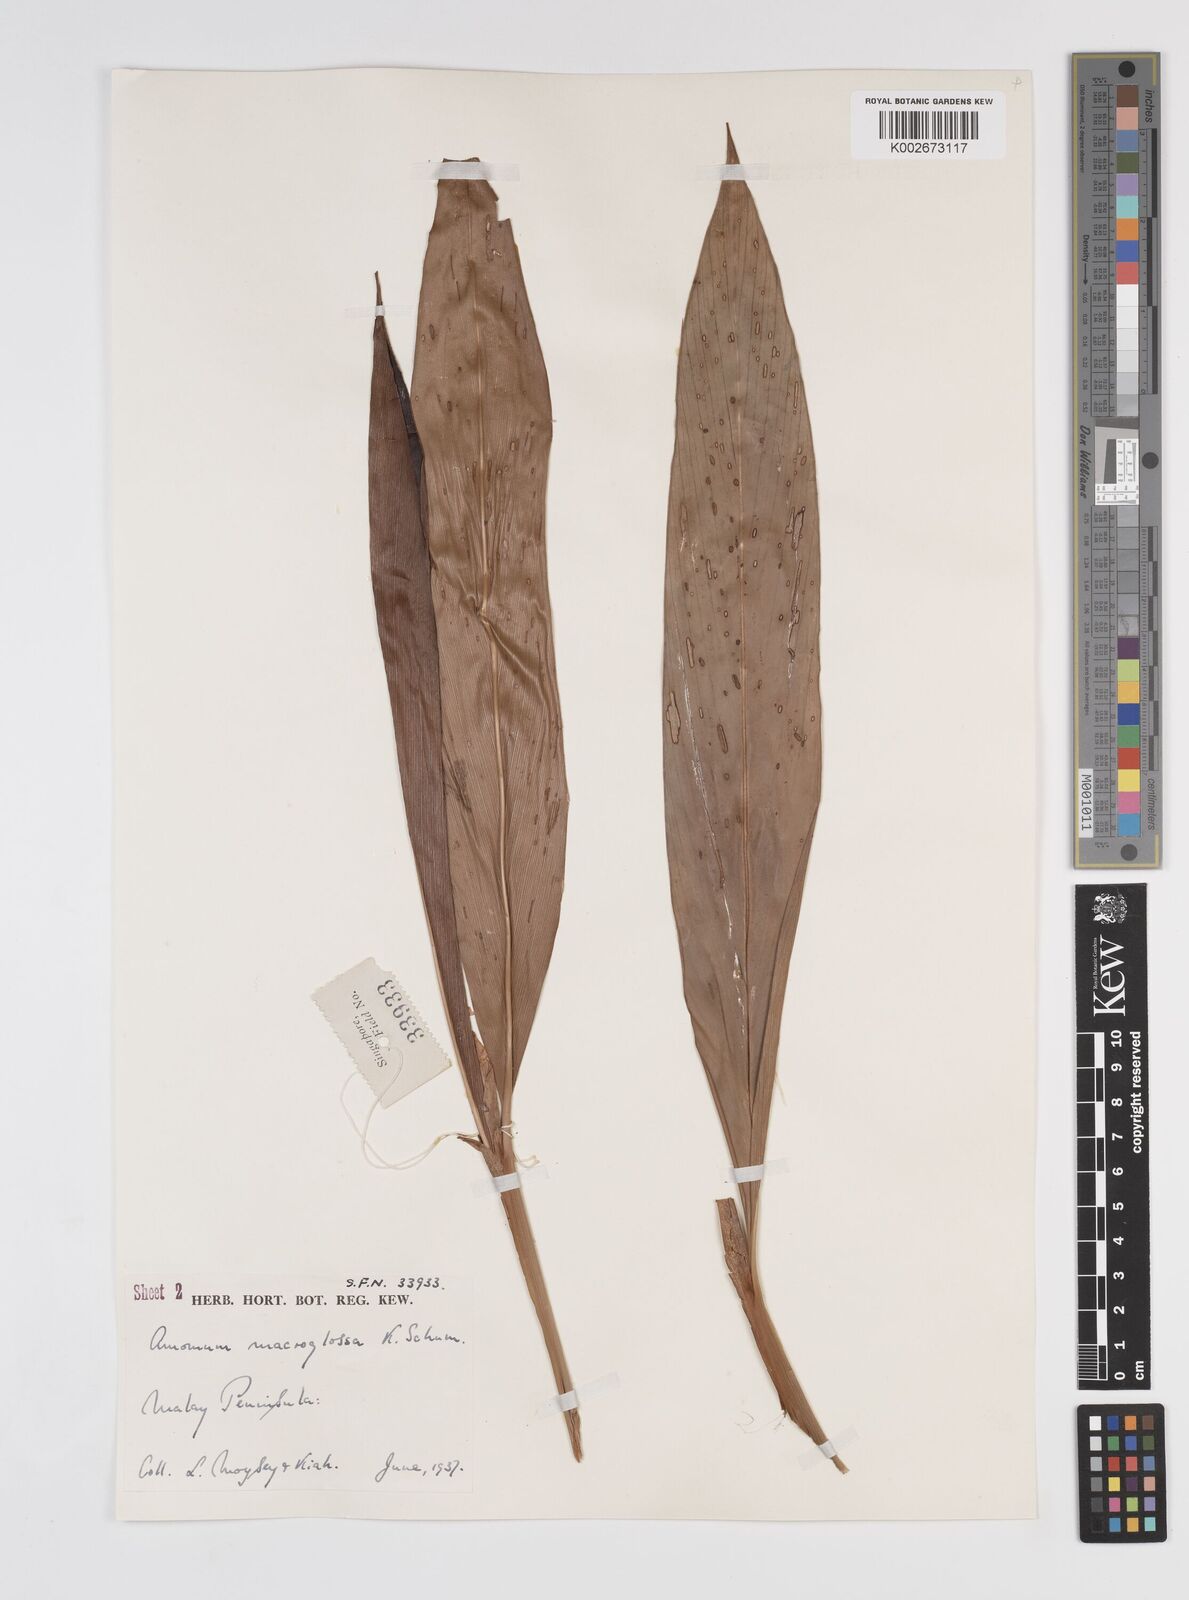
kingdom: Plantae
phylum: Tracheophyta
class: Liliopsida
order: Zingiberales
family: Zingiberaceae
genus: Sundamomum
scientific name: Sundamomum macroglossa
